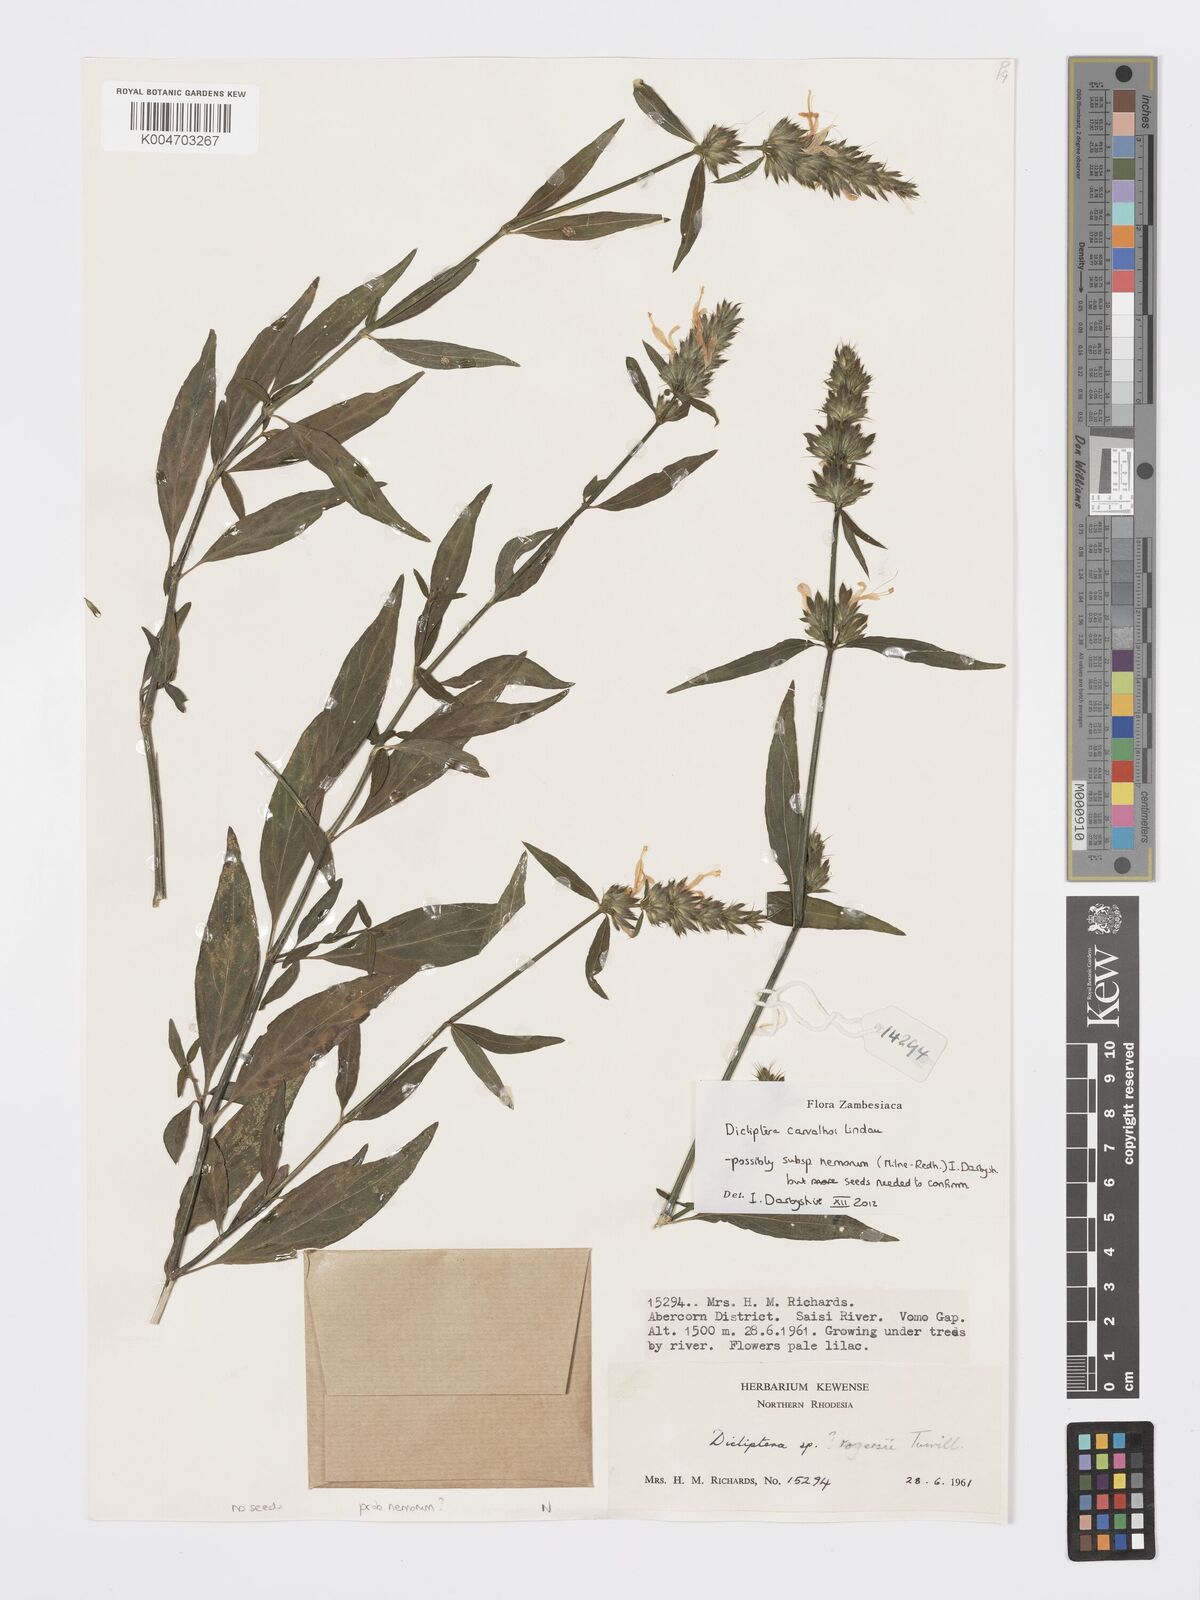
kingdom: Plantae
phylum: Tracheophyta
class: Magnoliopsida
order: Lamiales
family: Acanthaceae
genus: Dicliptera
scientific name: Dicliptera carvalhoi
